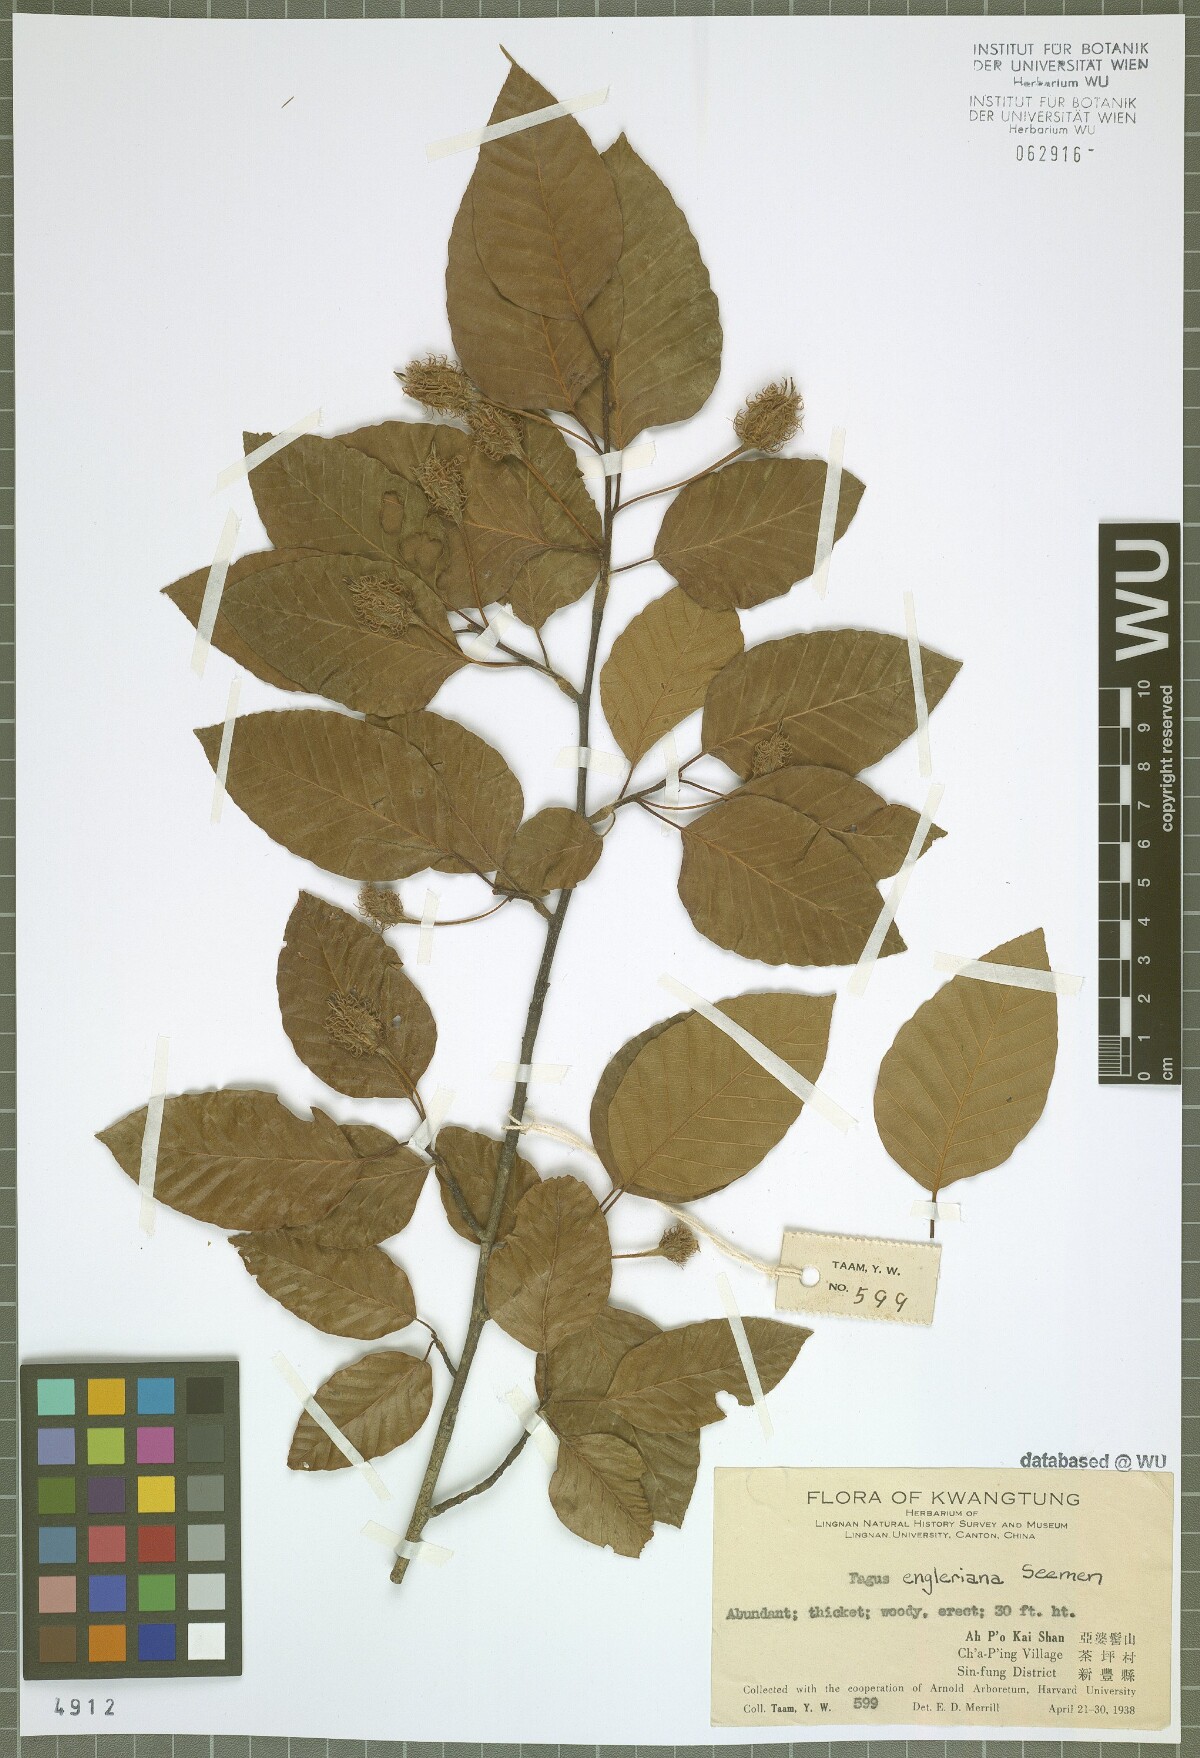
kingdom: Plantae
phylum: Tracheophyta
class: Magnoliopsida
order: Fagales
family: Fagaceae
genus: Fagus
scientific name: Fagus engleriana
